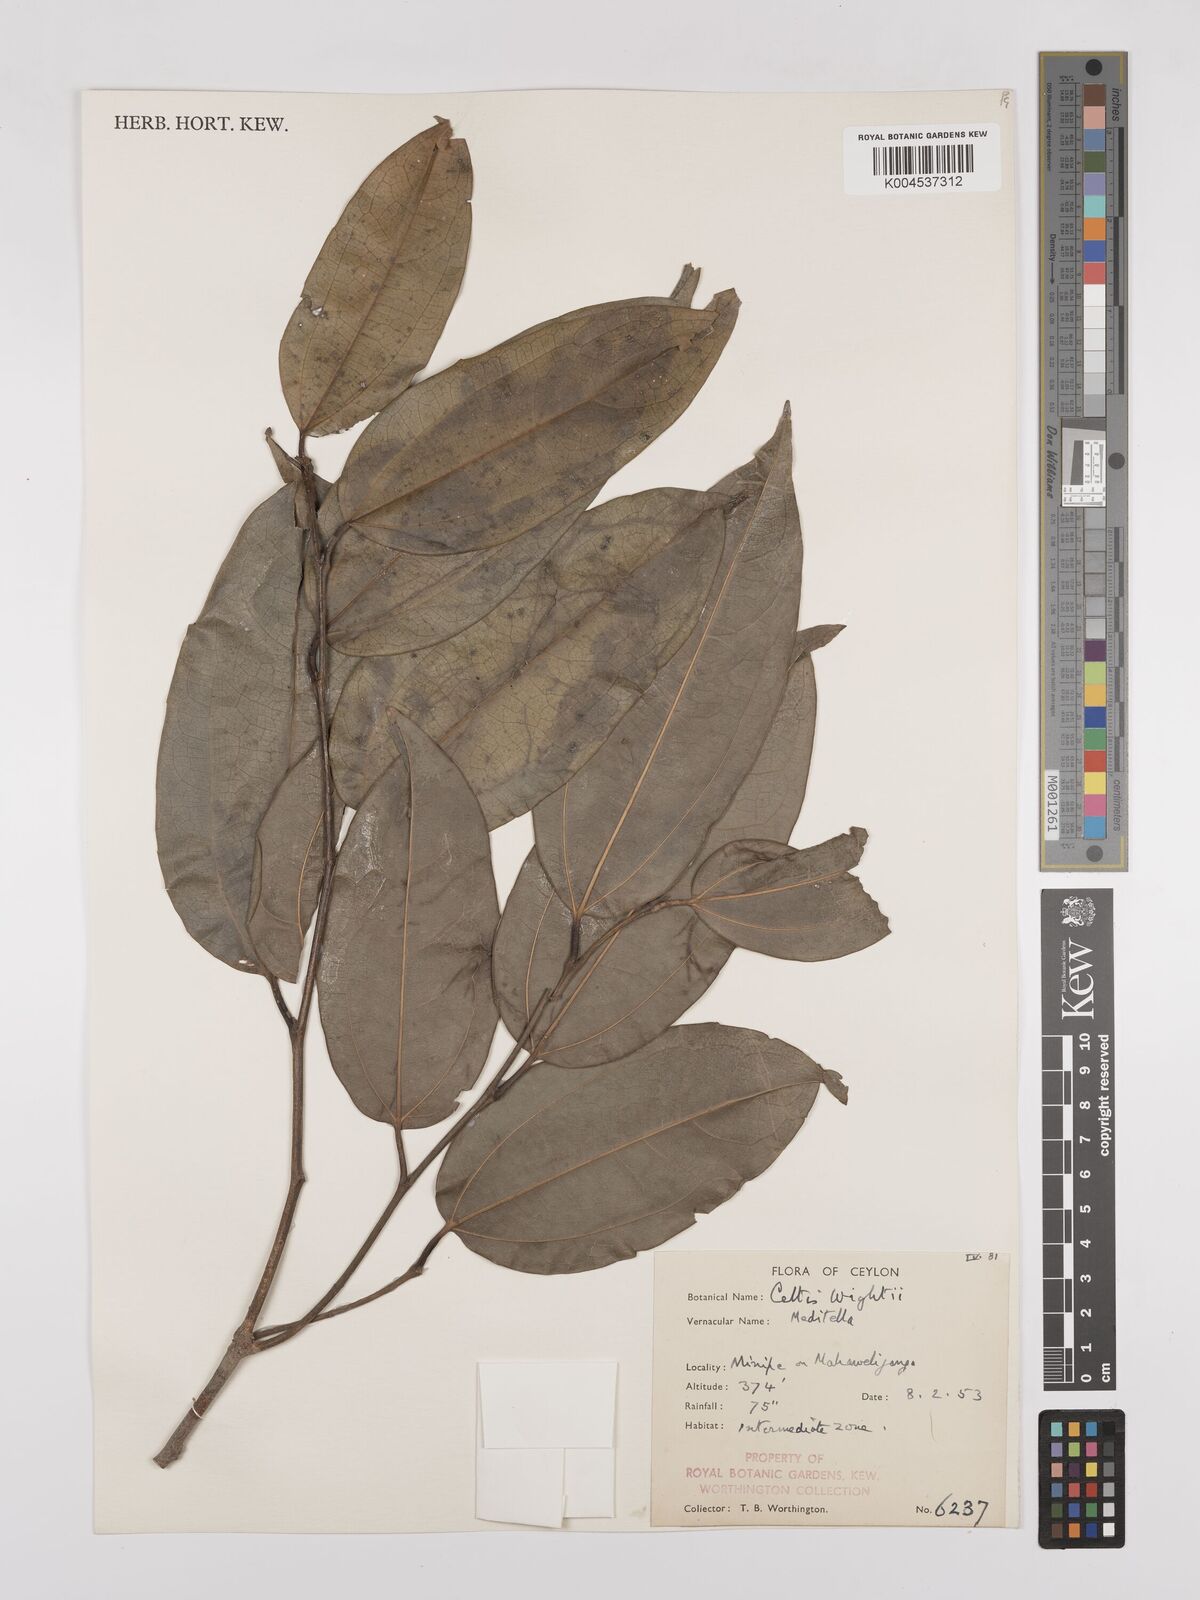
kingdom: Plantae
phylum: Tracheophyta
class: Magnoliopsida
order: Rosales
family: Cannabaceae
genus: Celtis
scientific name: Celtis philippensis
